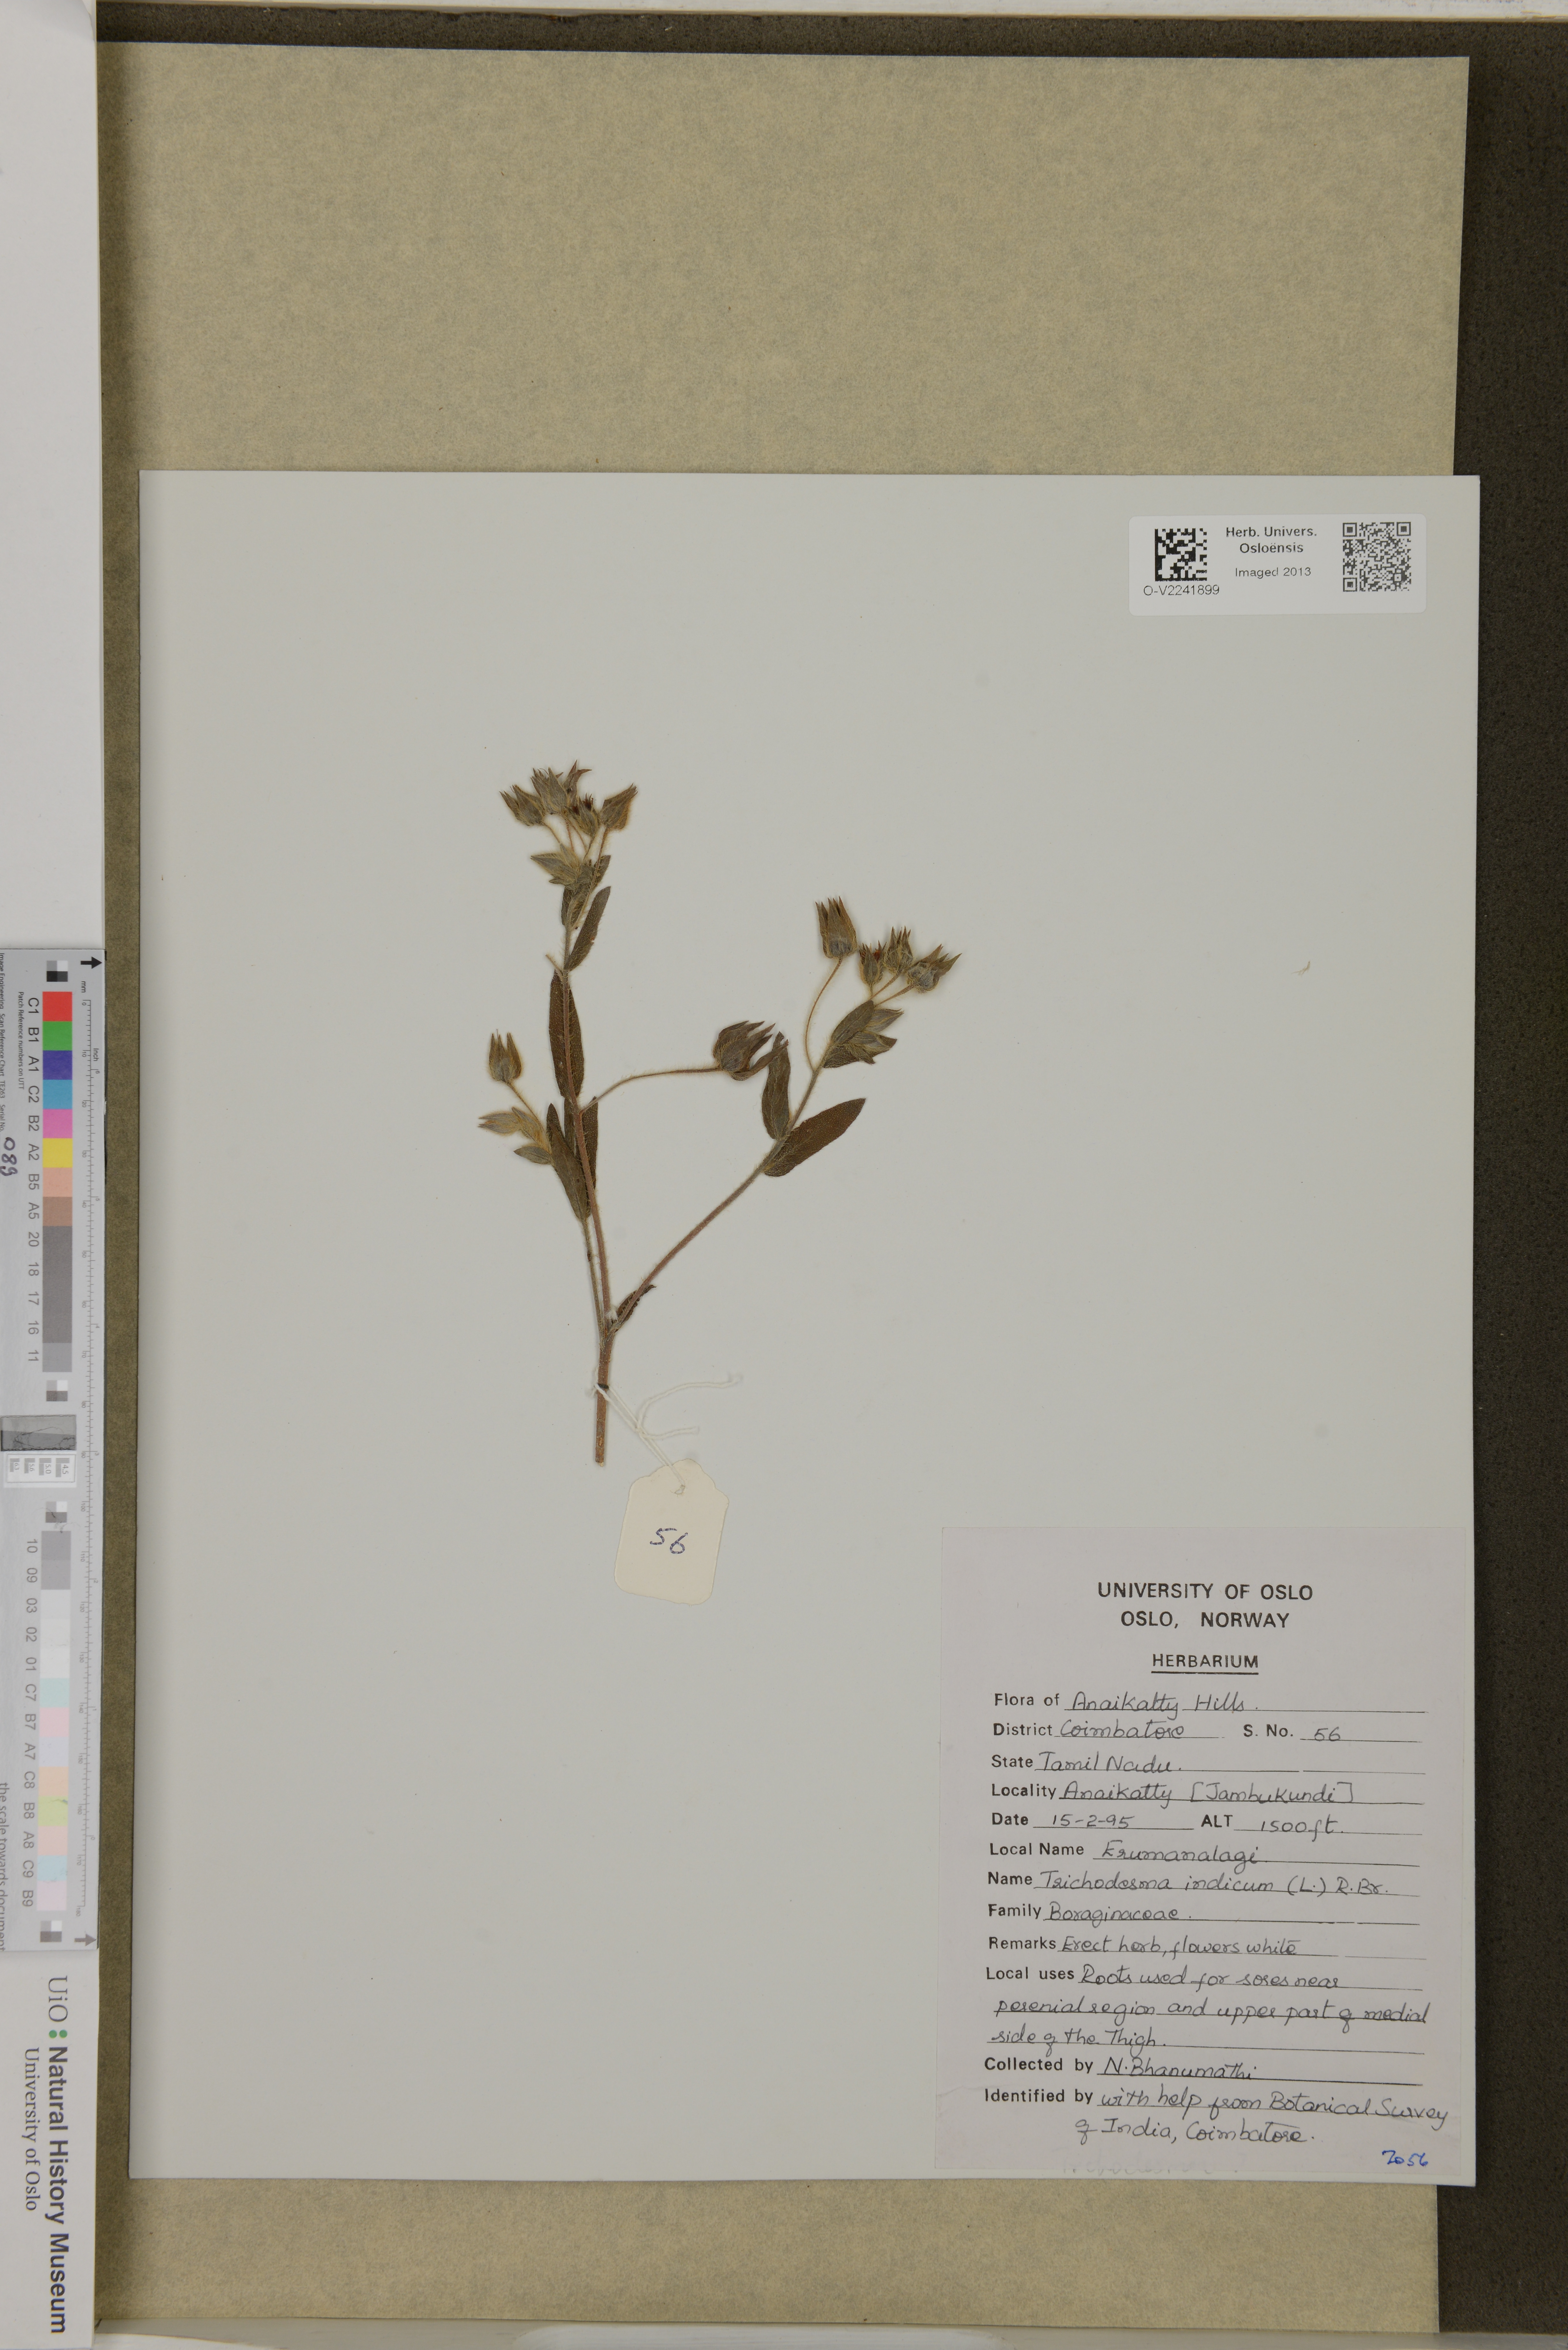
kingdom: Plantae
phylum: Tracheophyta
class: Magnoliopsida
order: Boraginales
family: Boraginaceae
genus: Trichodesma
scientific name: Trichodesma indicum
